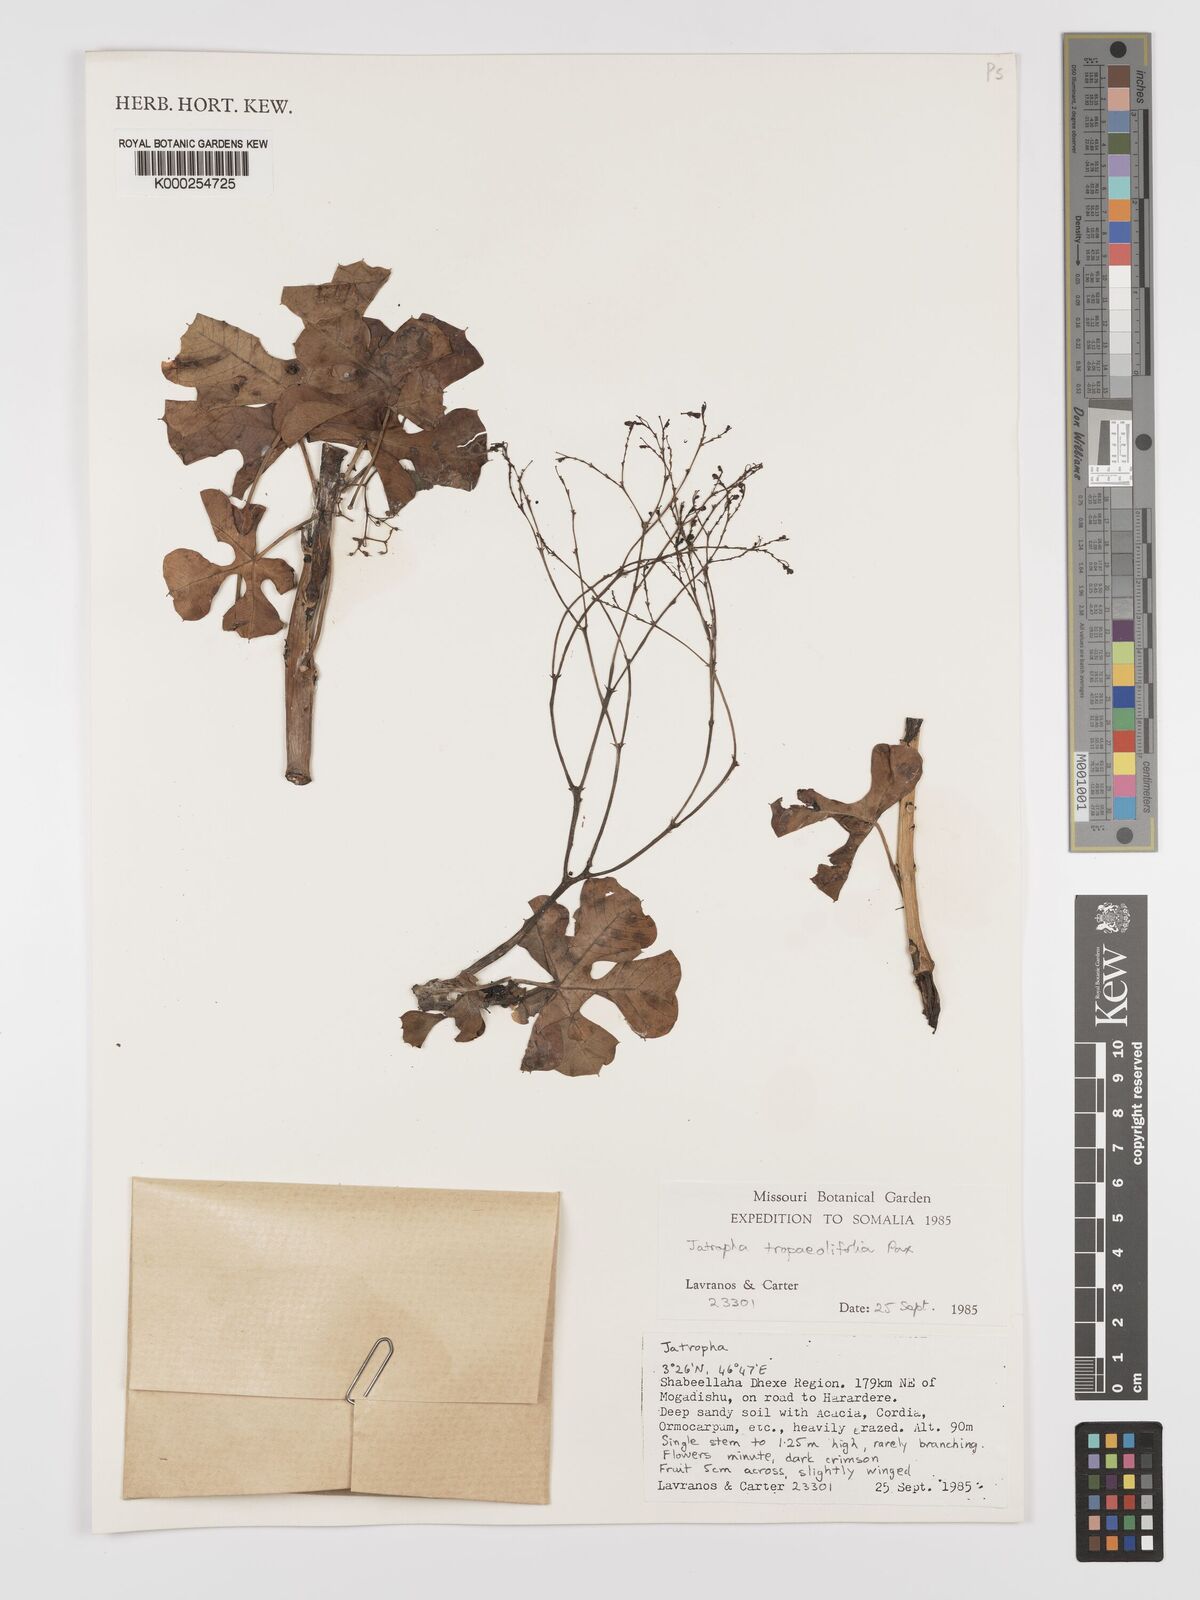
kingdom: Plantae
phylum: Tracheophyta
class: Magnoliopsida
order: Malpighiales
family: Euphorbiaceae
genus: Jatropha
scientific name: Jatropha tropaeolifolia
